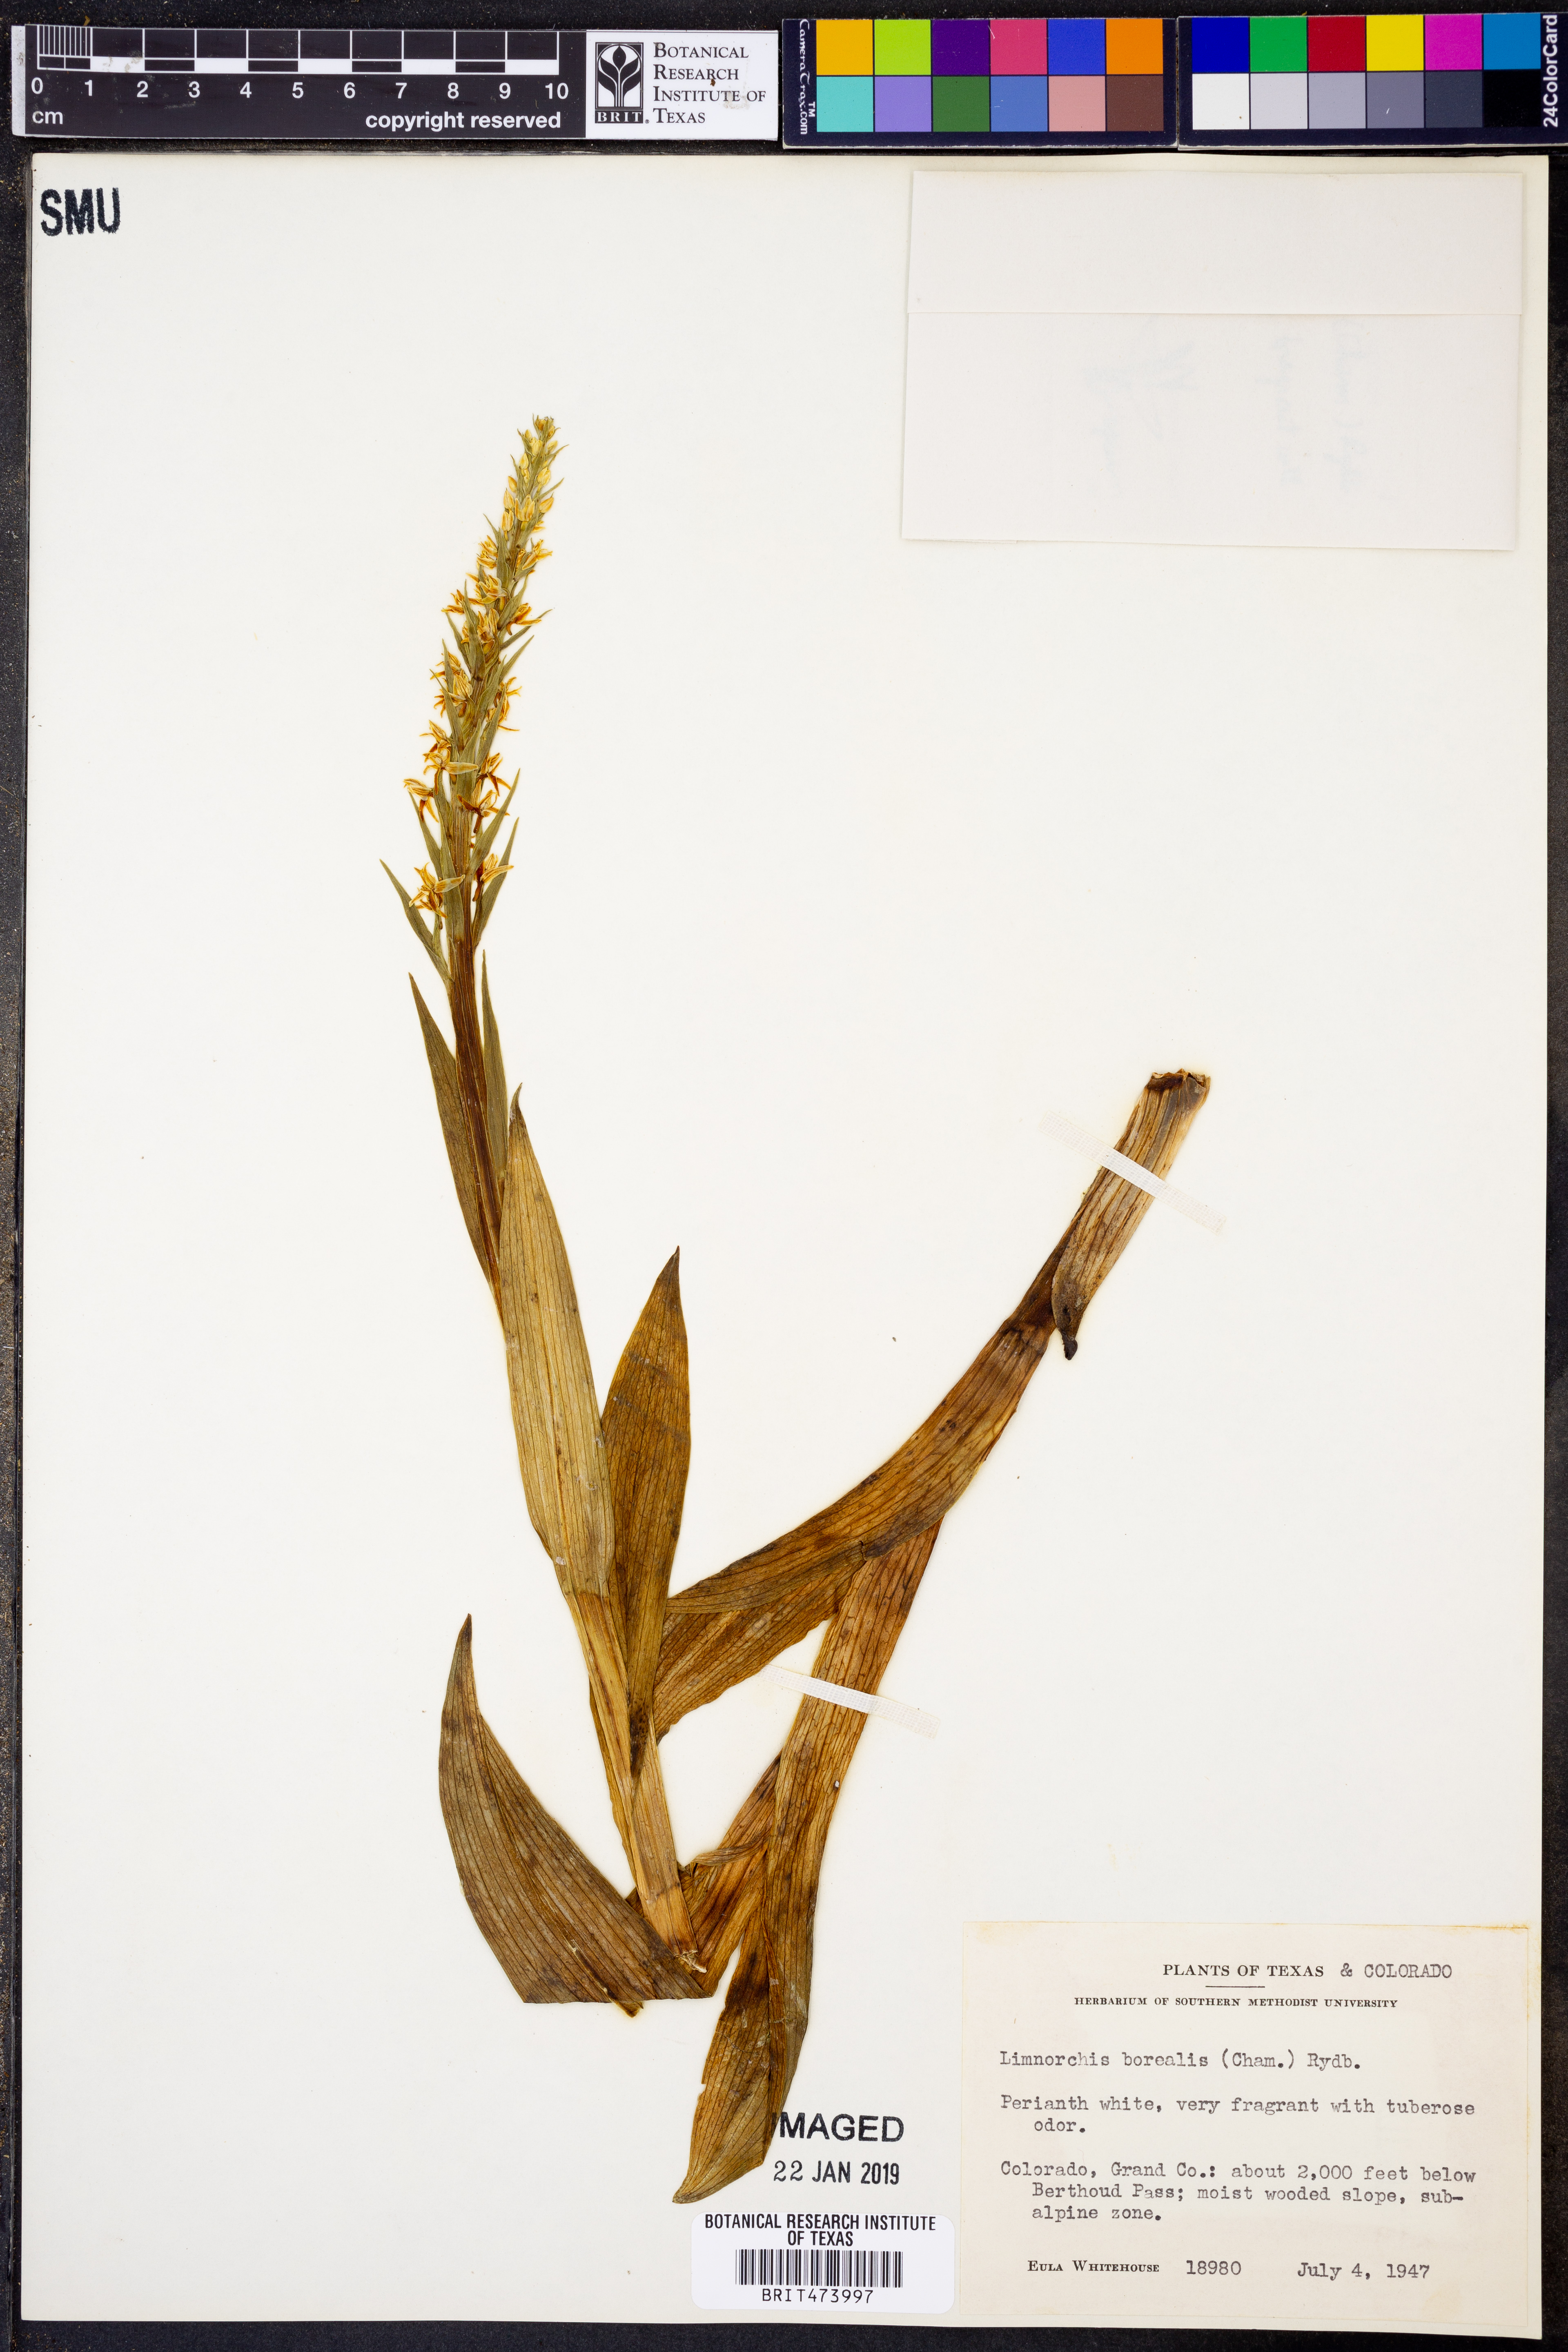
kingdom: Plantae
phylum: Tracheophyta
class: Liliopsida
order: Asparagales
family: Orchidaceae
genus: Platanthera
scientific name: Platanthera hyperborea
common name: Northern green orchid
